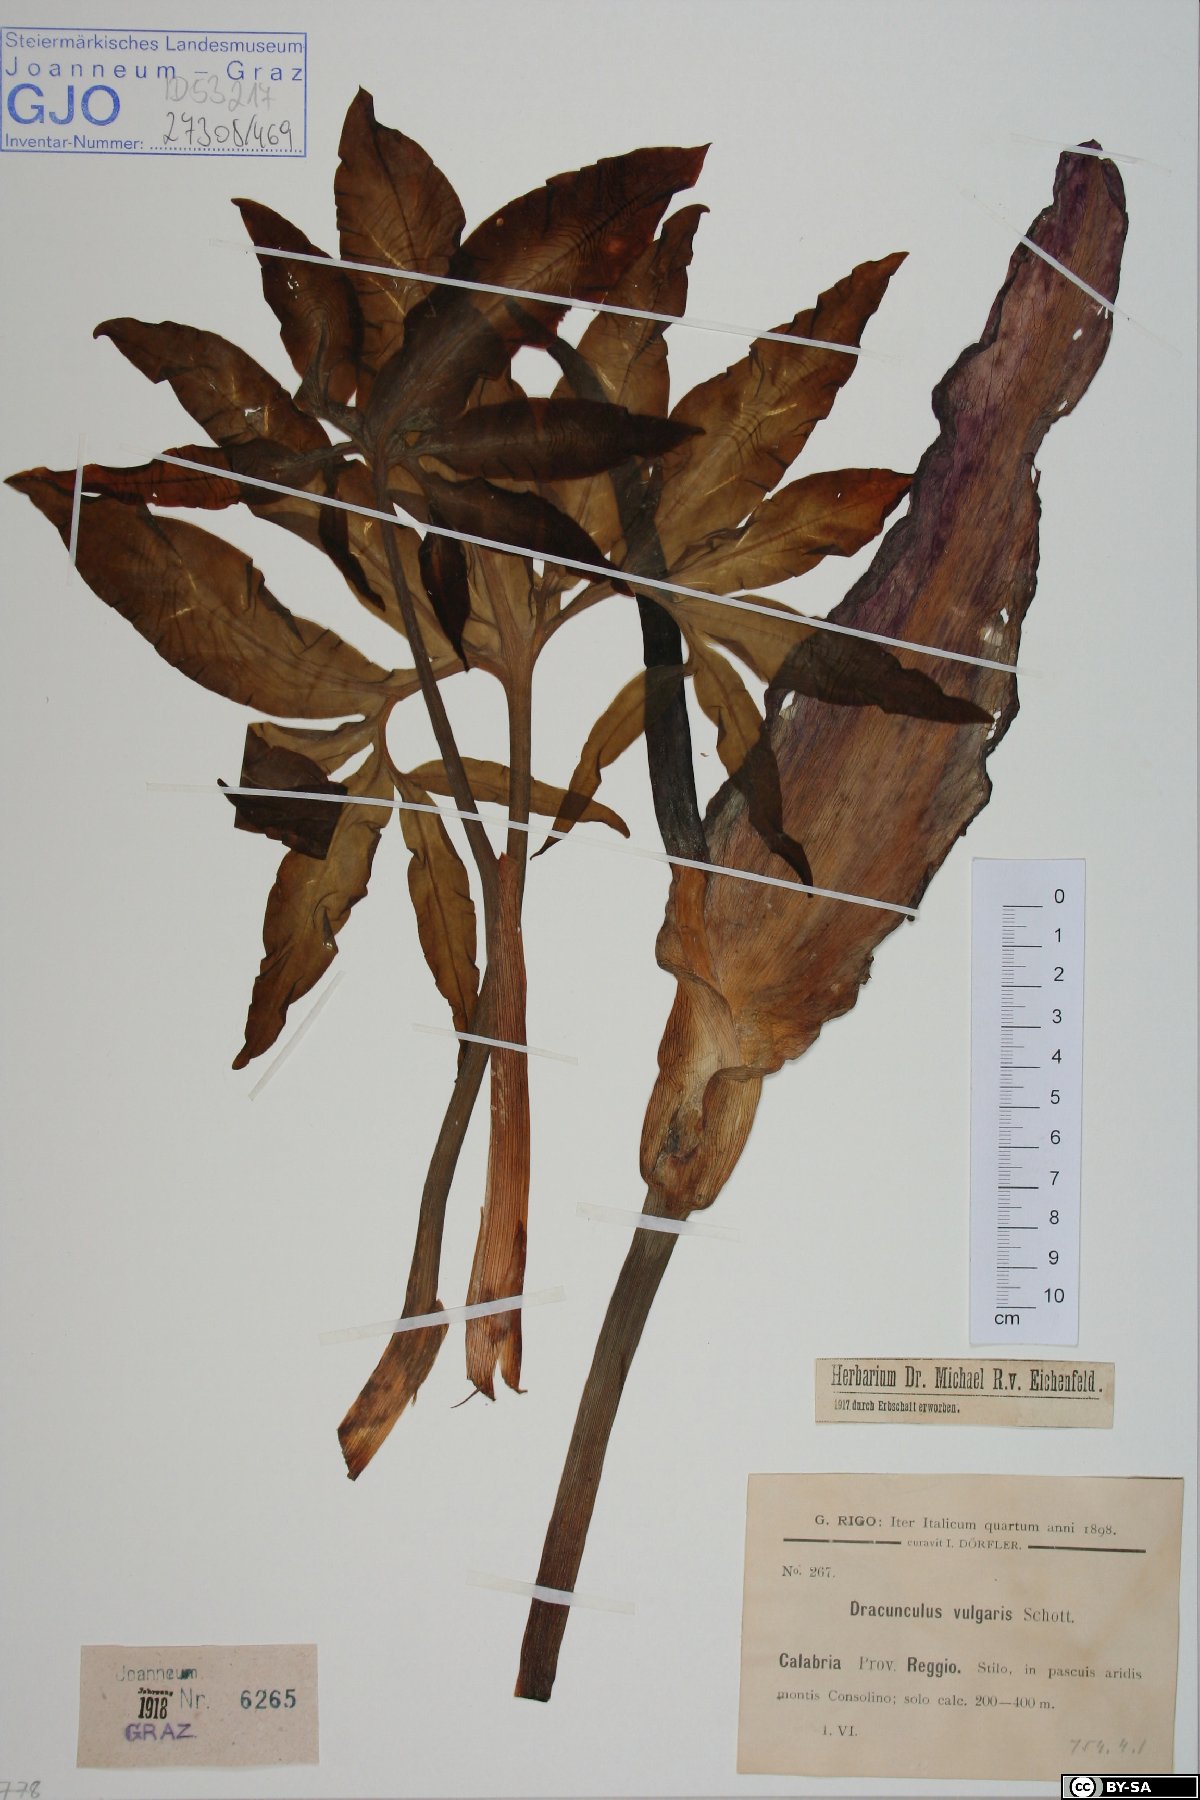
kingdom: Plantae
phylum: Tracheophyta
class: Liliopsida
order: Alismatales
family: Araceae
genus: Dracunculus
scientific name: Dracunculus vulgaris
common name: Dragon arum
